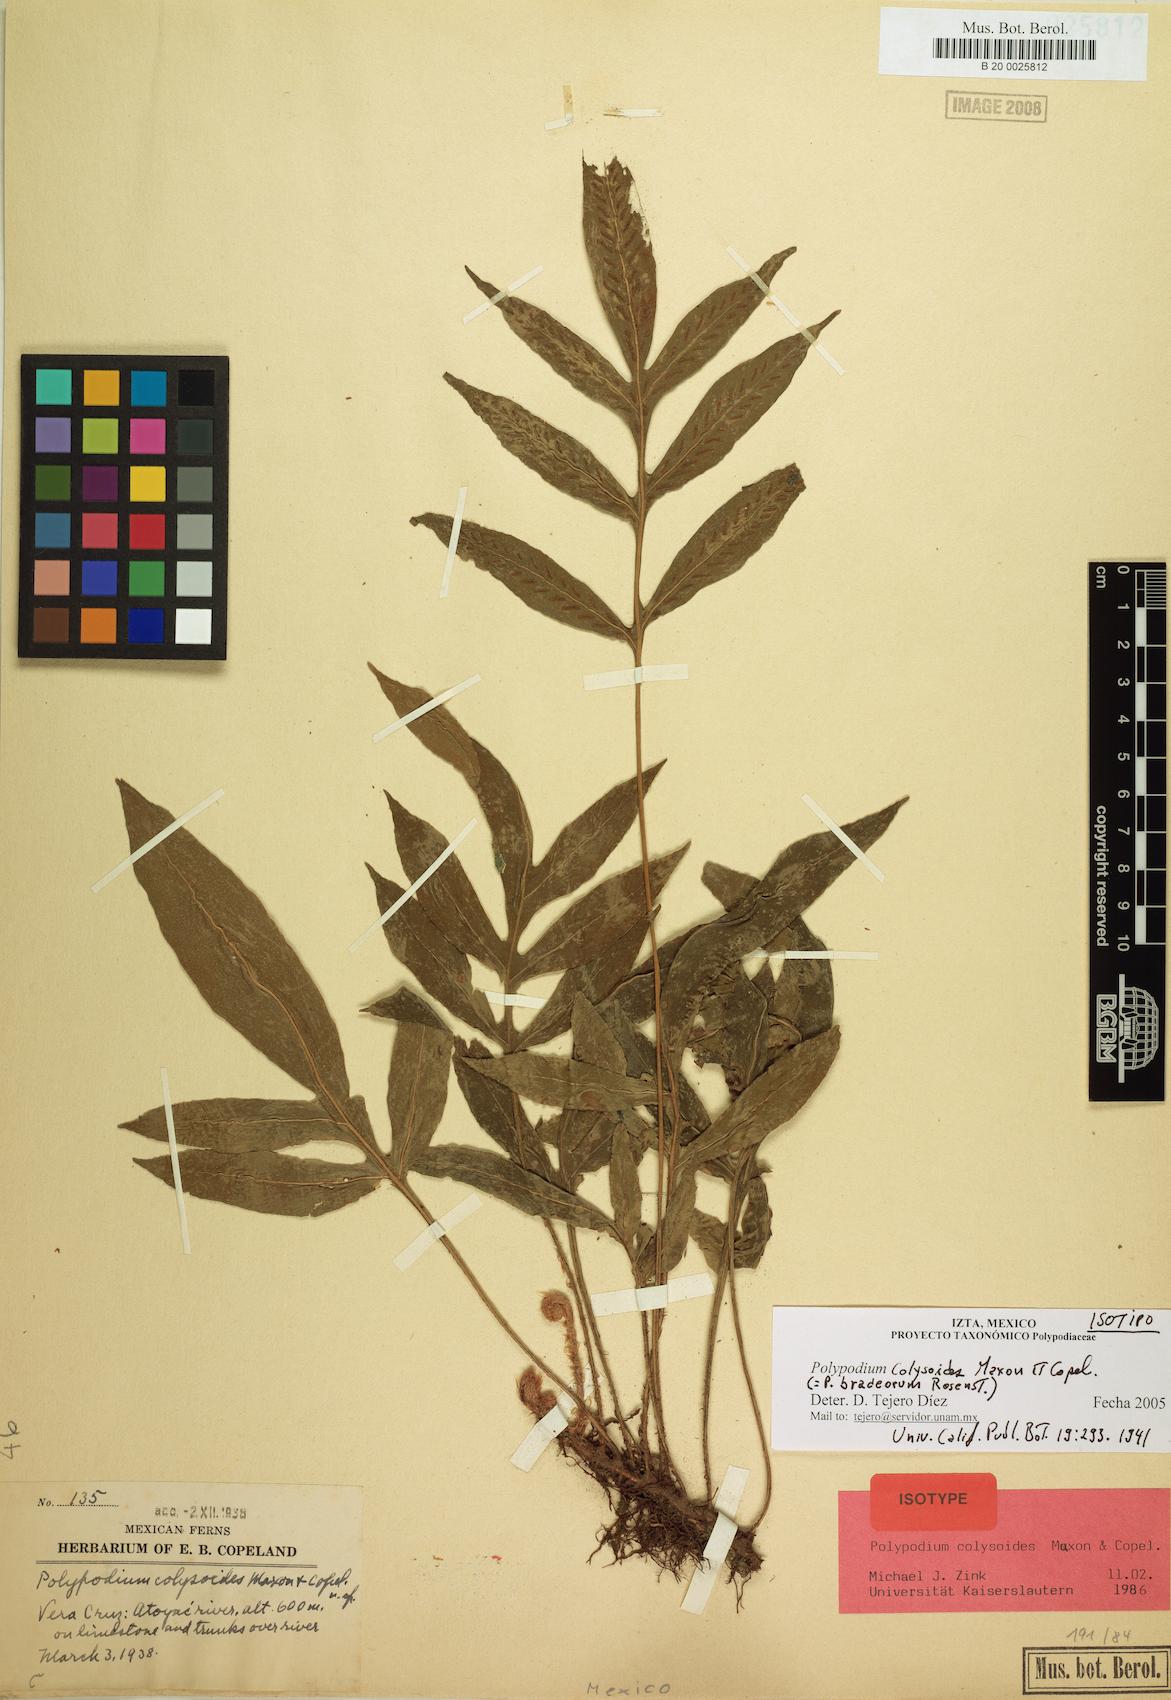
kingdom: Plantae
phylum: Tracheophyta
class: Polypodiopsida
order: Polypodiales
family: Polypodiaceae
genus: Pleopeltis
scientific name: Pleopeltis bradeorum
